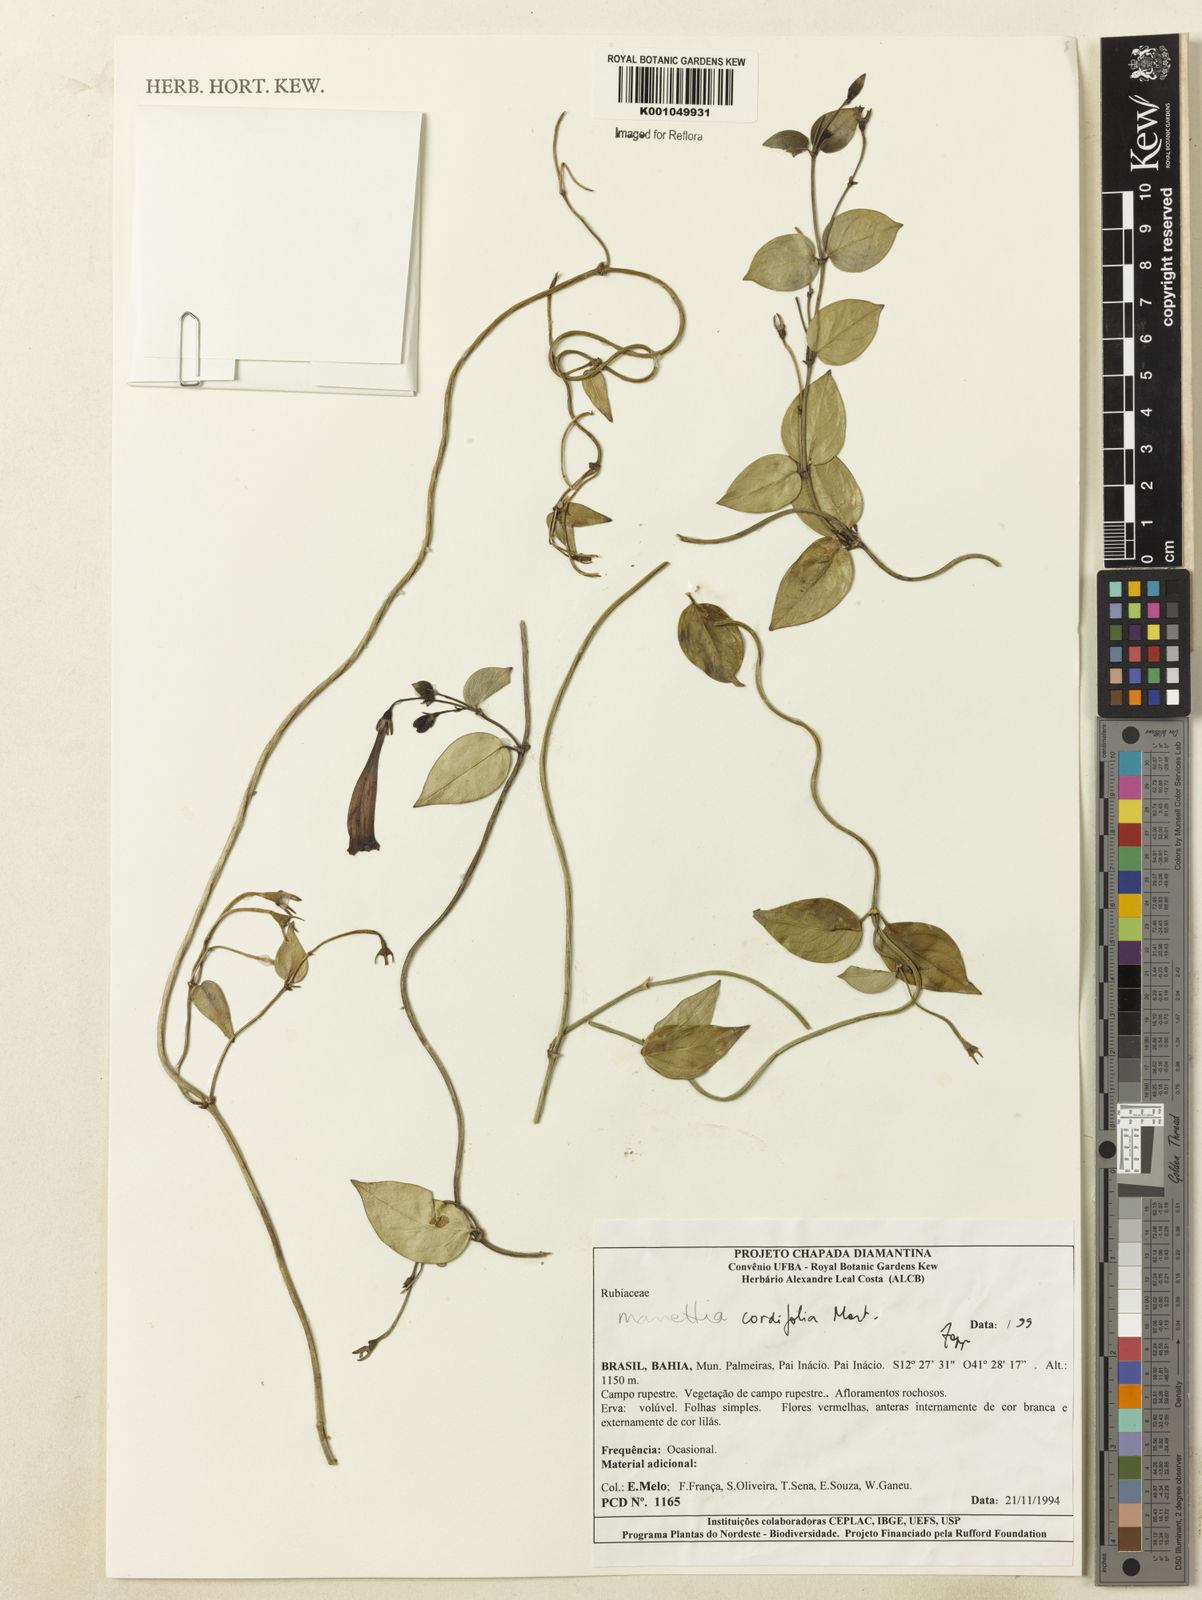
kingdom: Plantae
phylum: Tracheophyta
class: Magnoliopsida
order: Gentianales
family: Rubiaceae
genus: Manettia
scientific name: Manettia cordifolia
